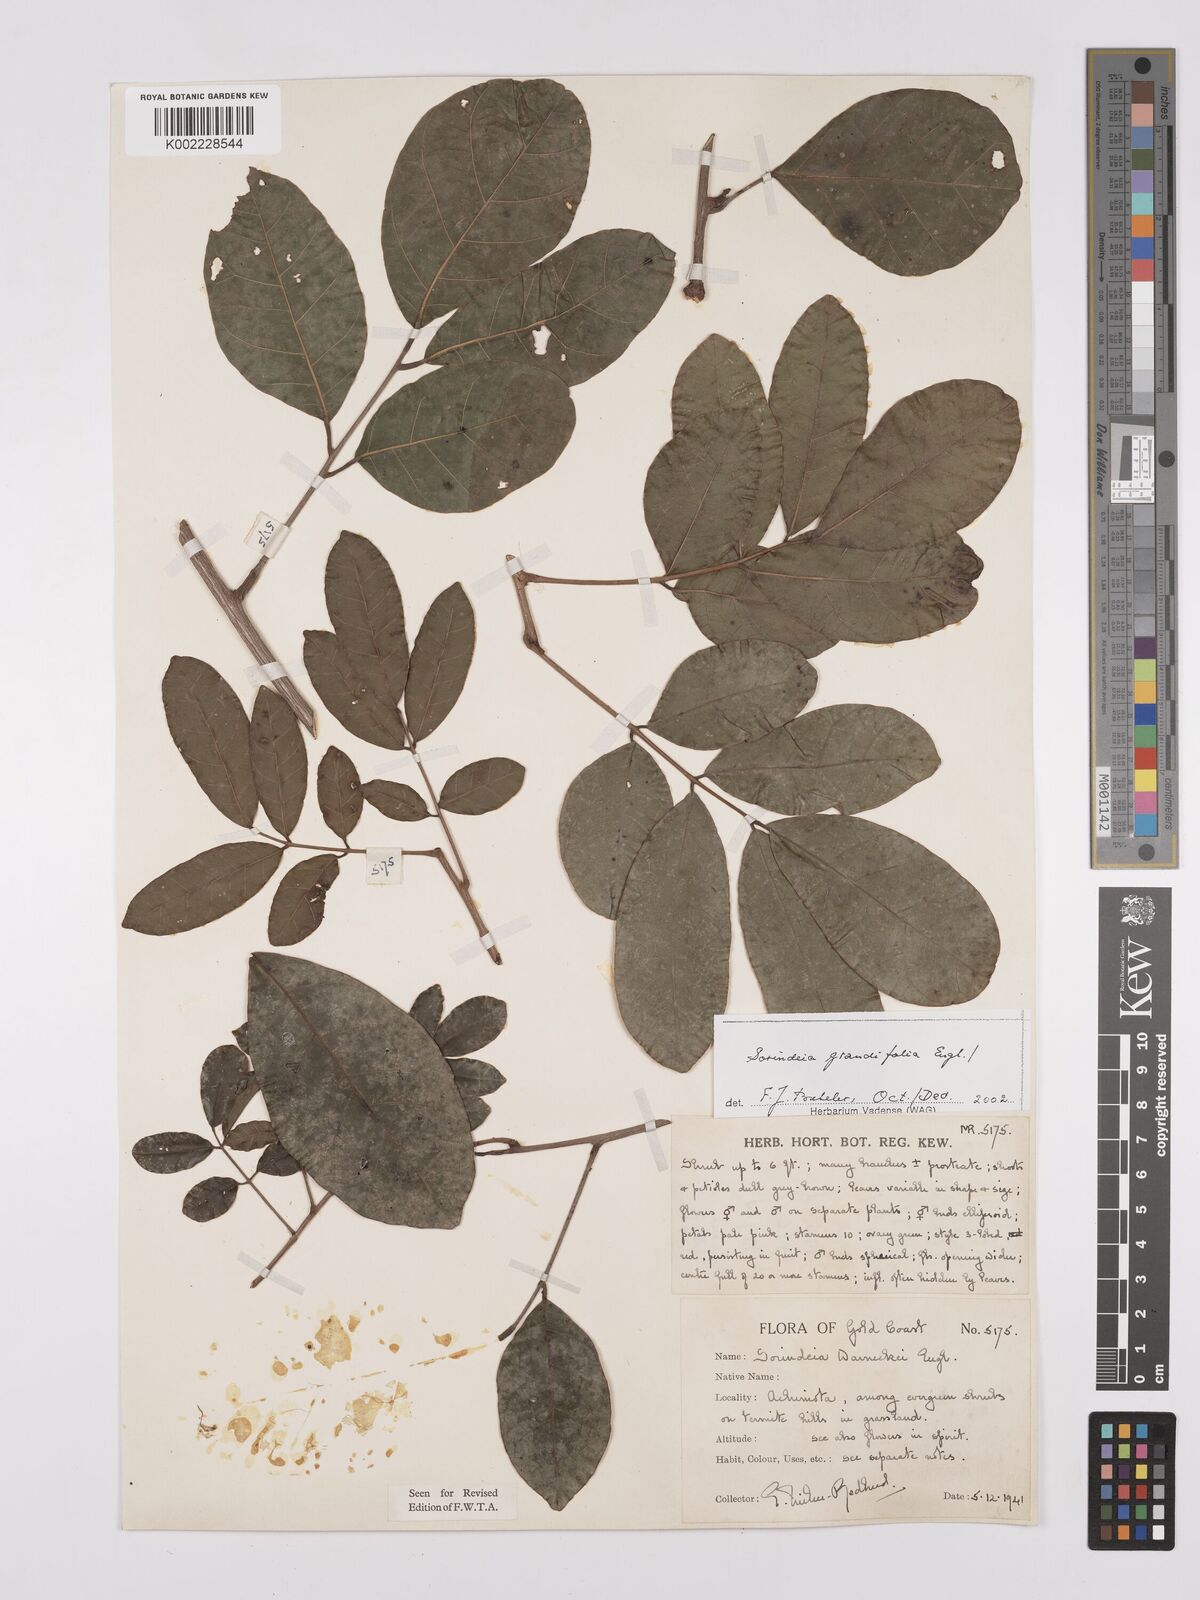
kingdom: Plantae
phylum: Tracheophyta
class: Magnoliopsida
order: Sapindales
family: Anacardiaceae
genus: Sorindeia
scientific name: Sorindeia grandifolia
